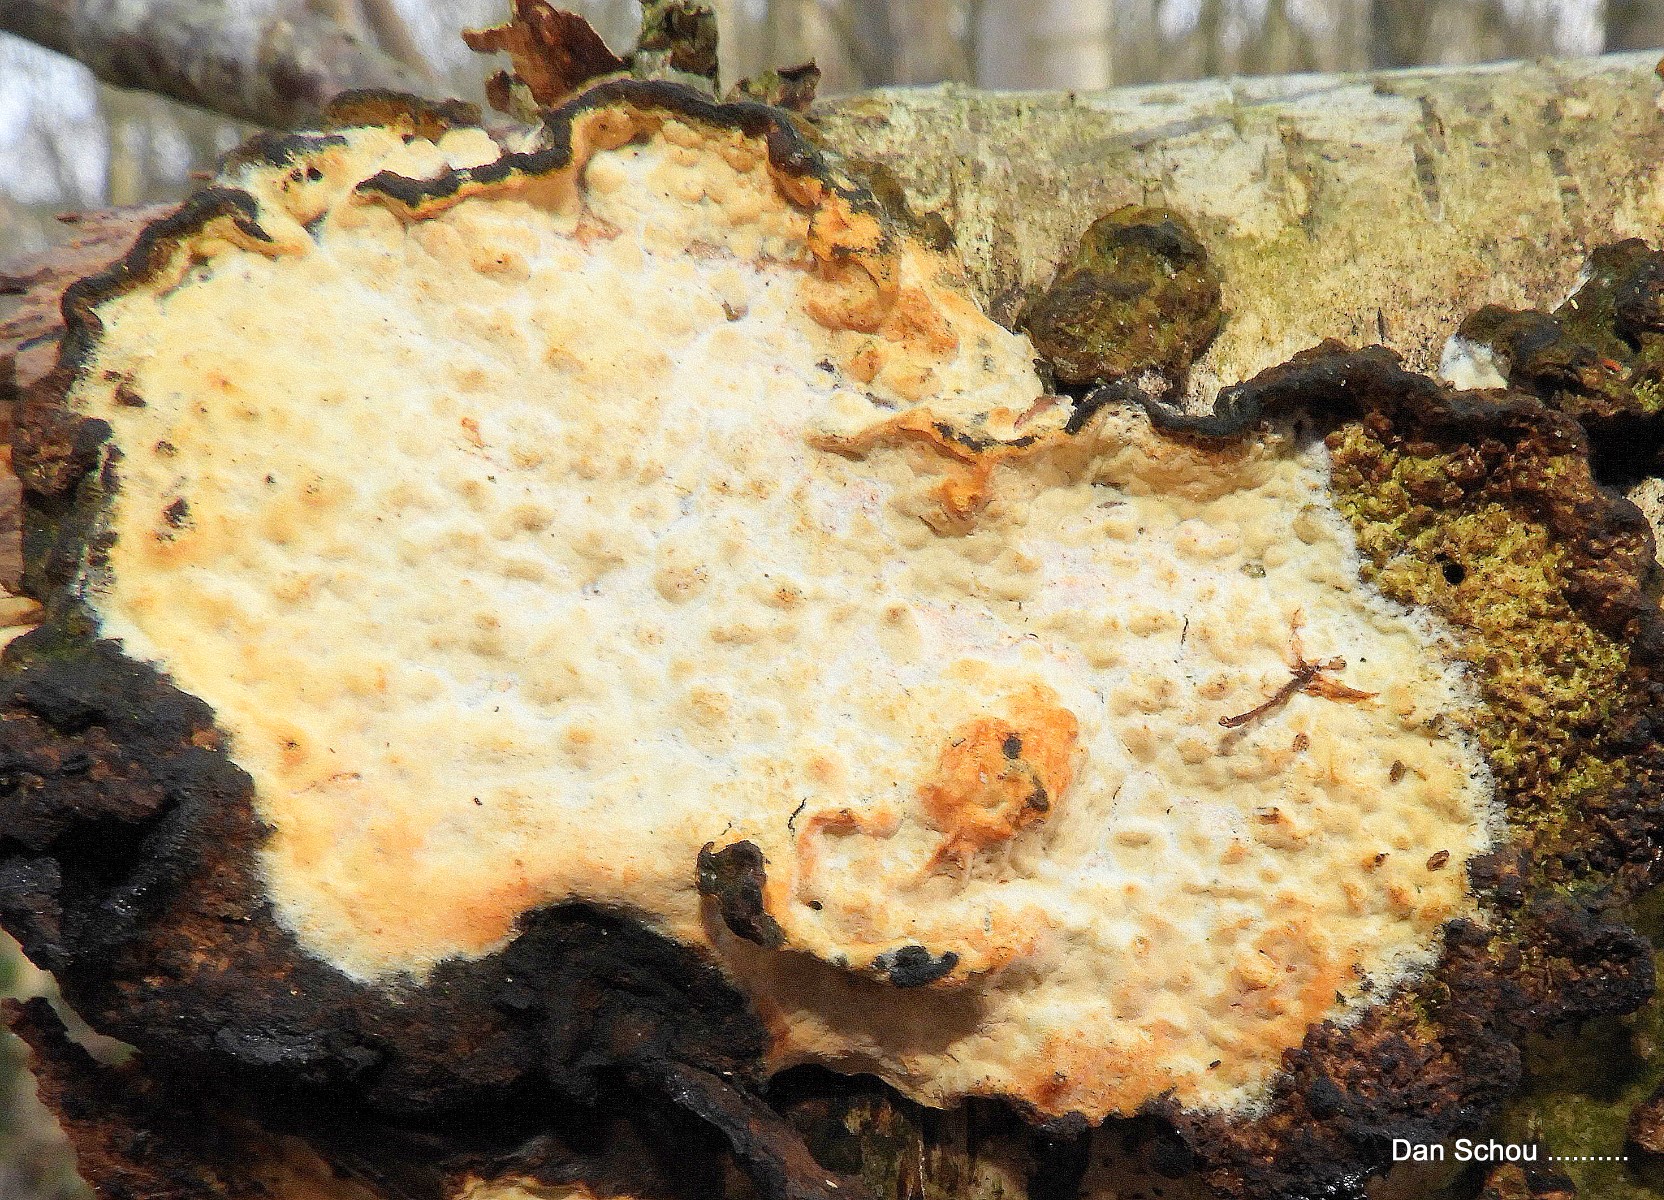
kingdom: Fungi
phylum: Basidiomycota
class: Agaricomycetes
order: Corticiales
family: Corticiaceae
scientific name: Corticiaceae
